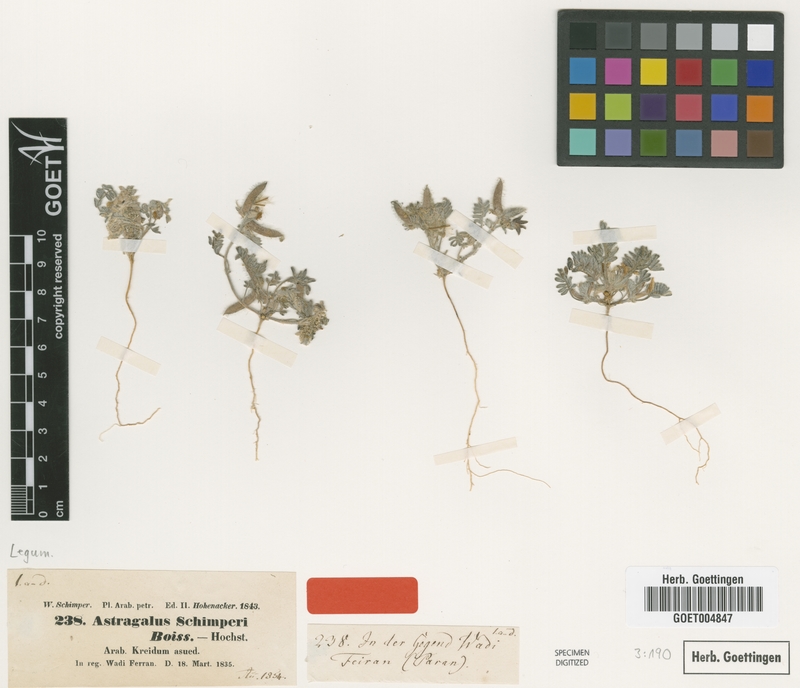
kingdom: Plantae
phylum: Tracheophyta
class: Magnoliopsida
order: Fabales
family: Fabaceae
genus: Astragalus
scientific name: Astragalus schimperi
